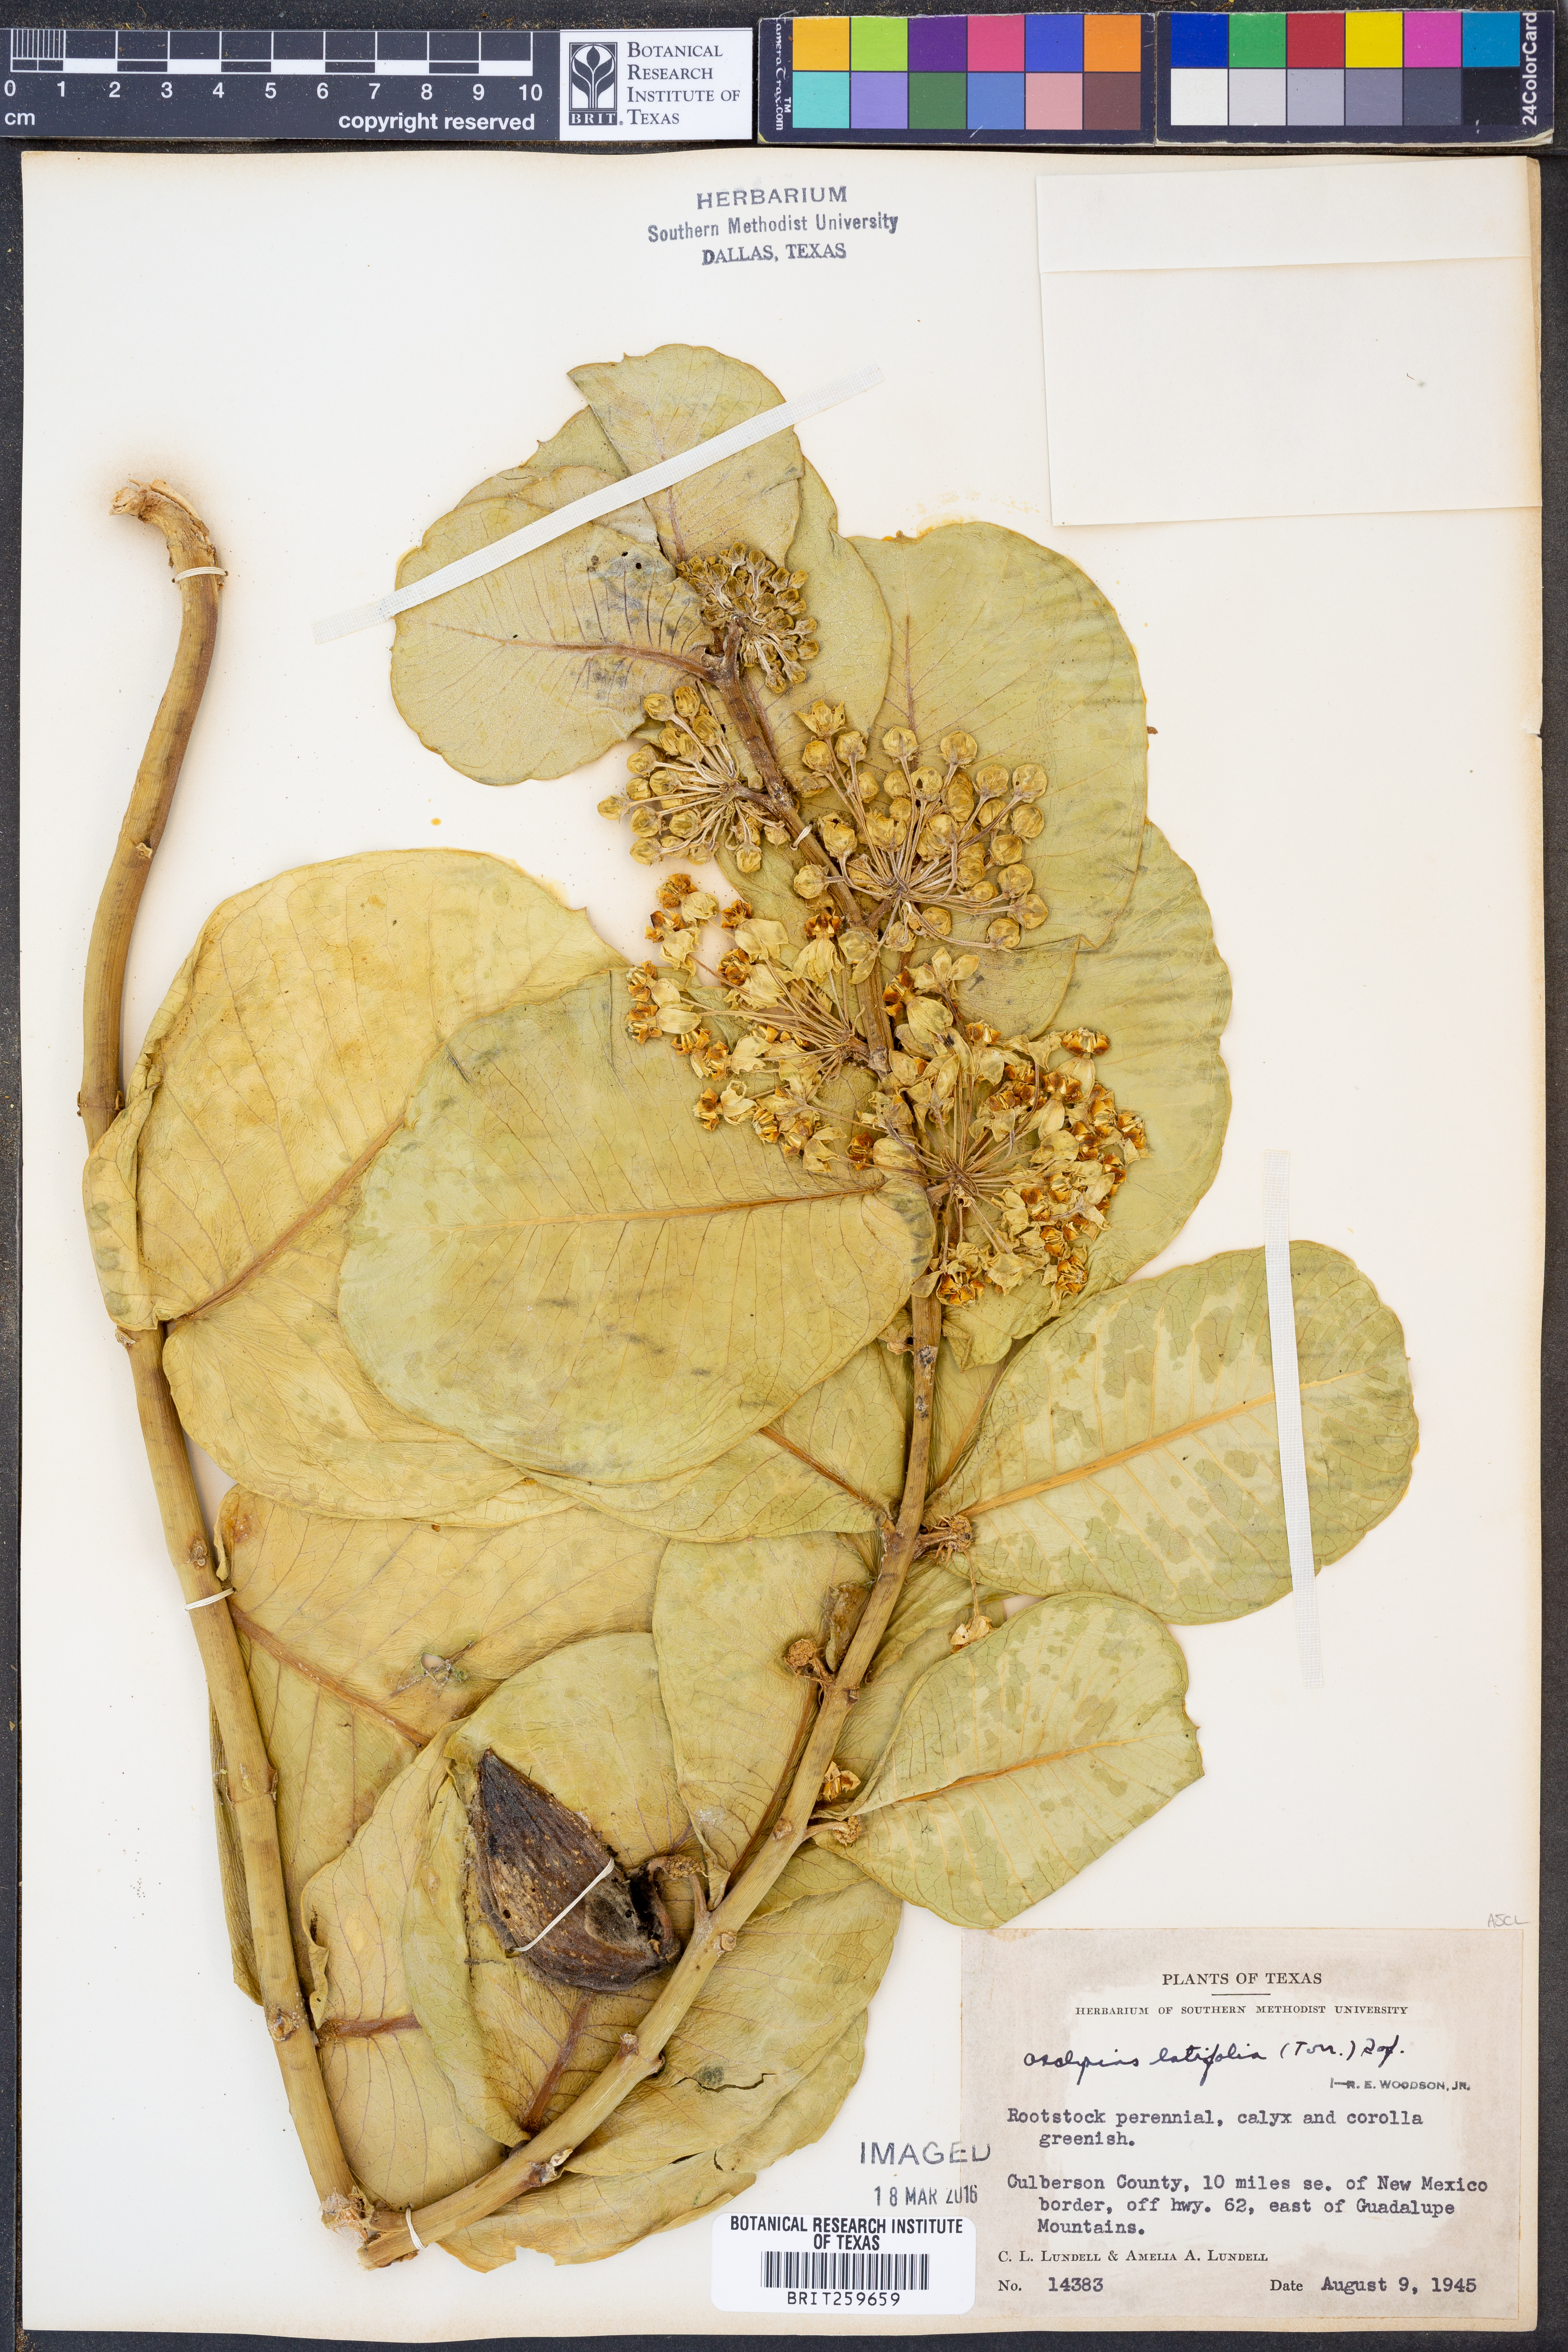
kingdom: Plantae
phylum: Tracheophyta
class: Magnoliopsida
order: Gentianales
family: Apocynaceae
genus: Asclepias
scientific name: Asclepias latifolia
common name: Broadleaf milkweed
